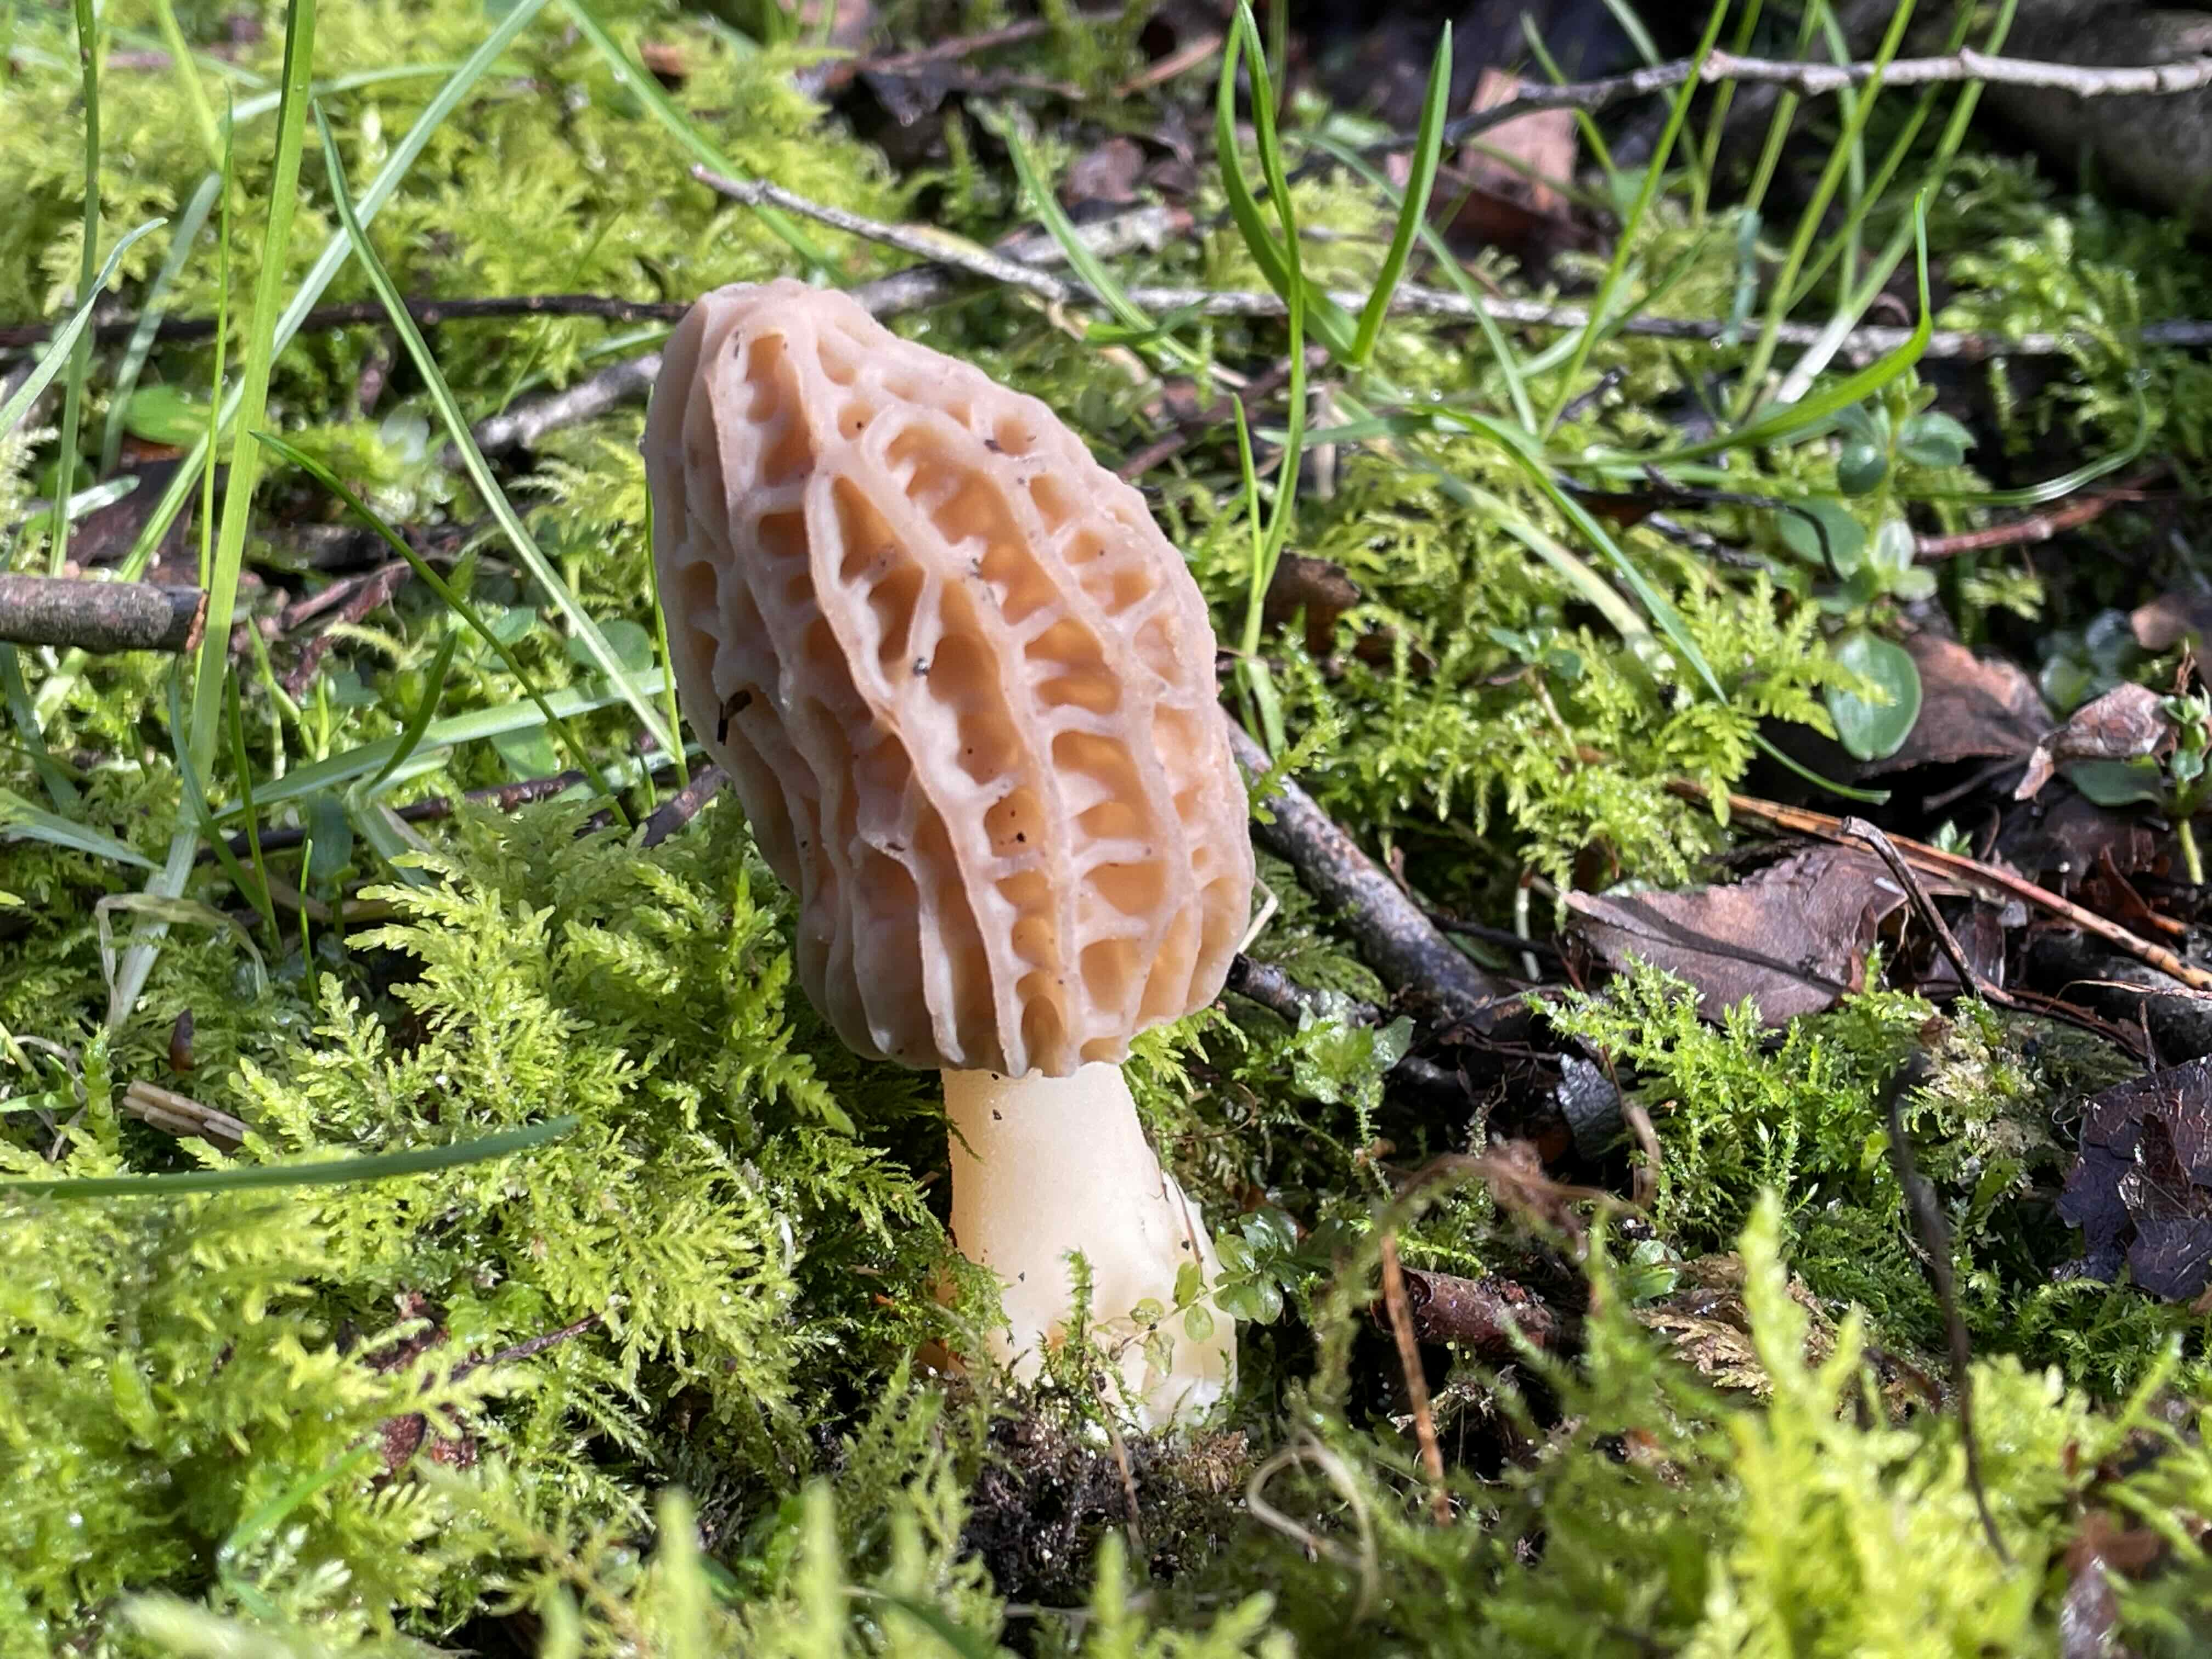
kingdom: Fungi
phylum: Ascomycota
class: Pezizomycetes
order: Pezizales
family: Morchellaceae
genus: Morchella
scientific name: Morchella esculenta
